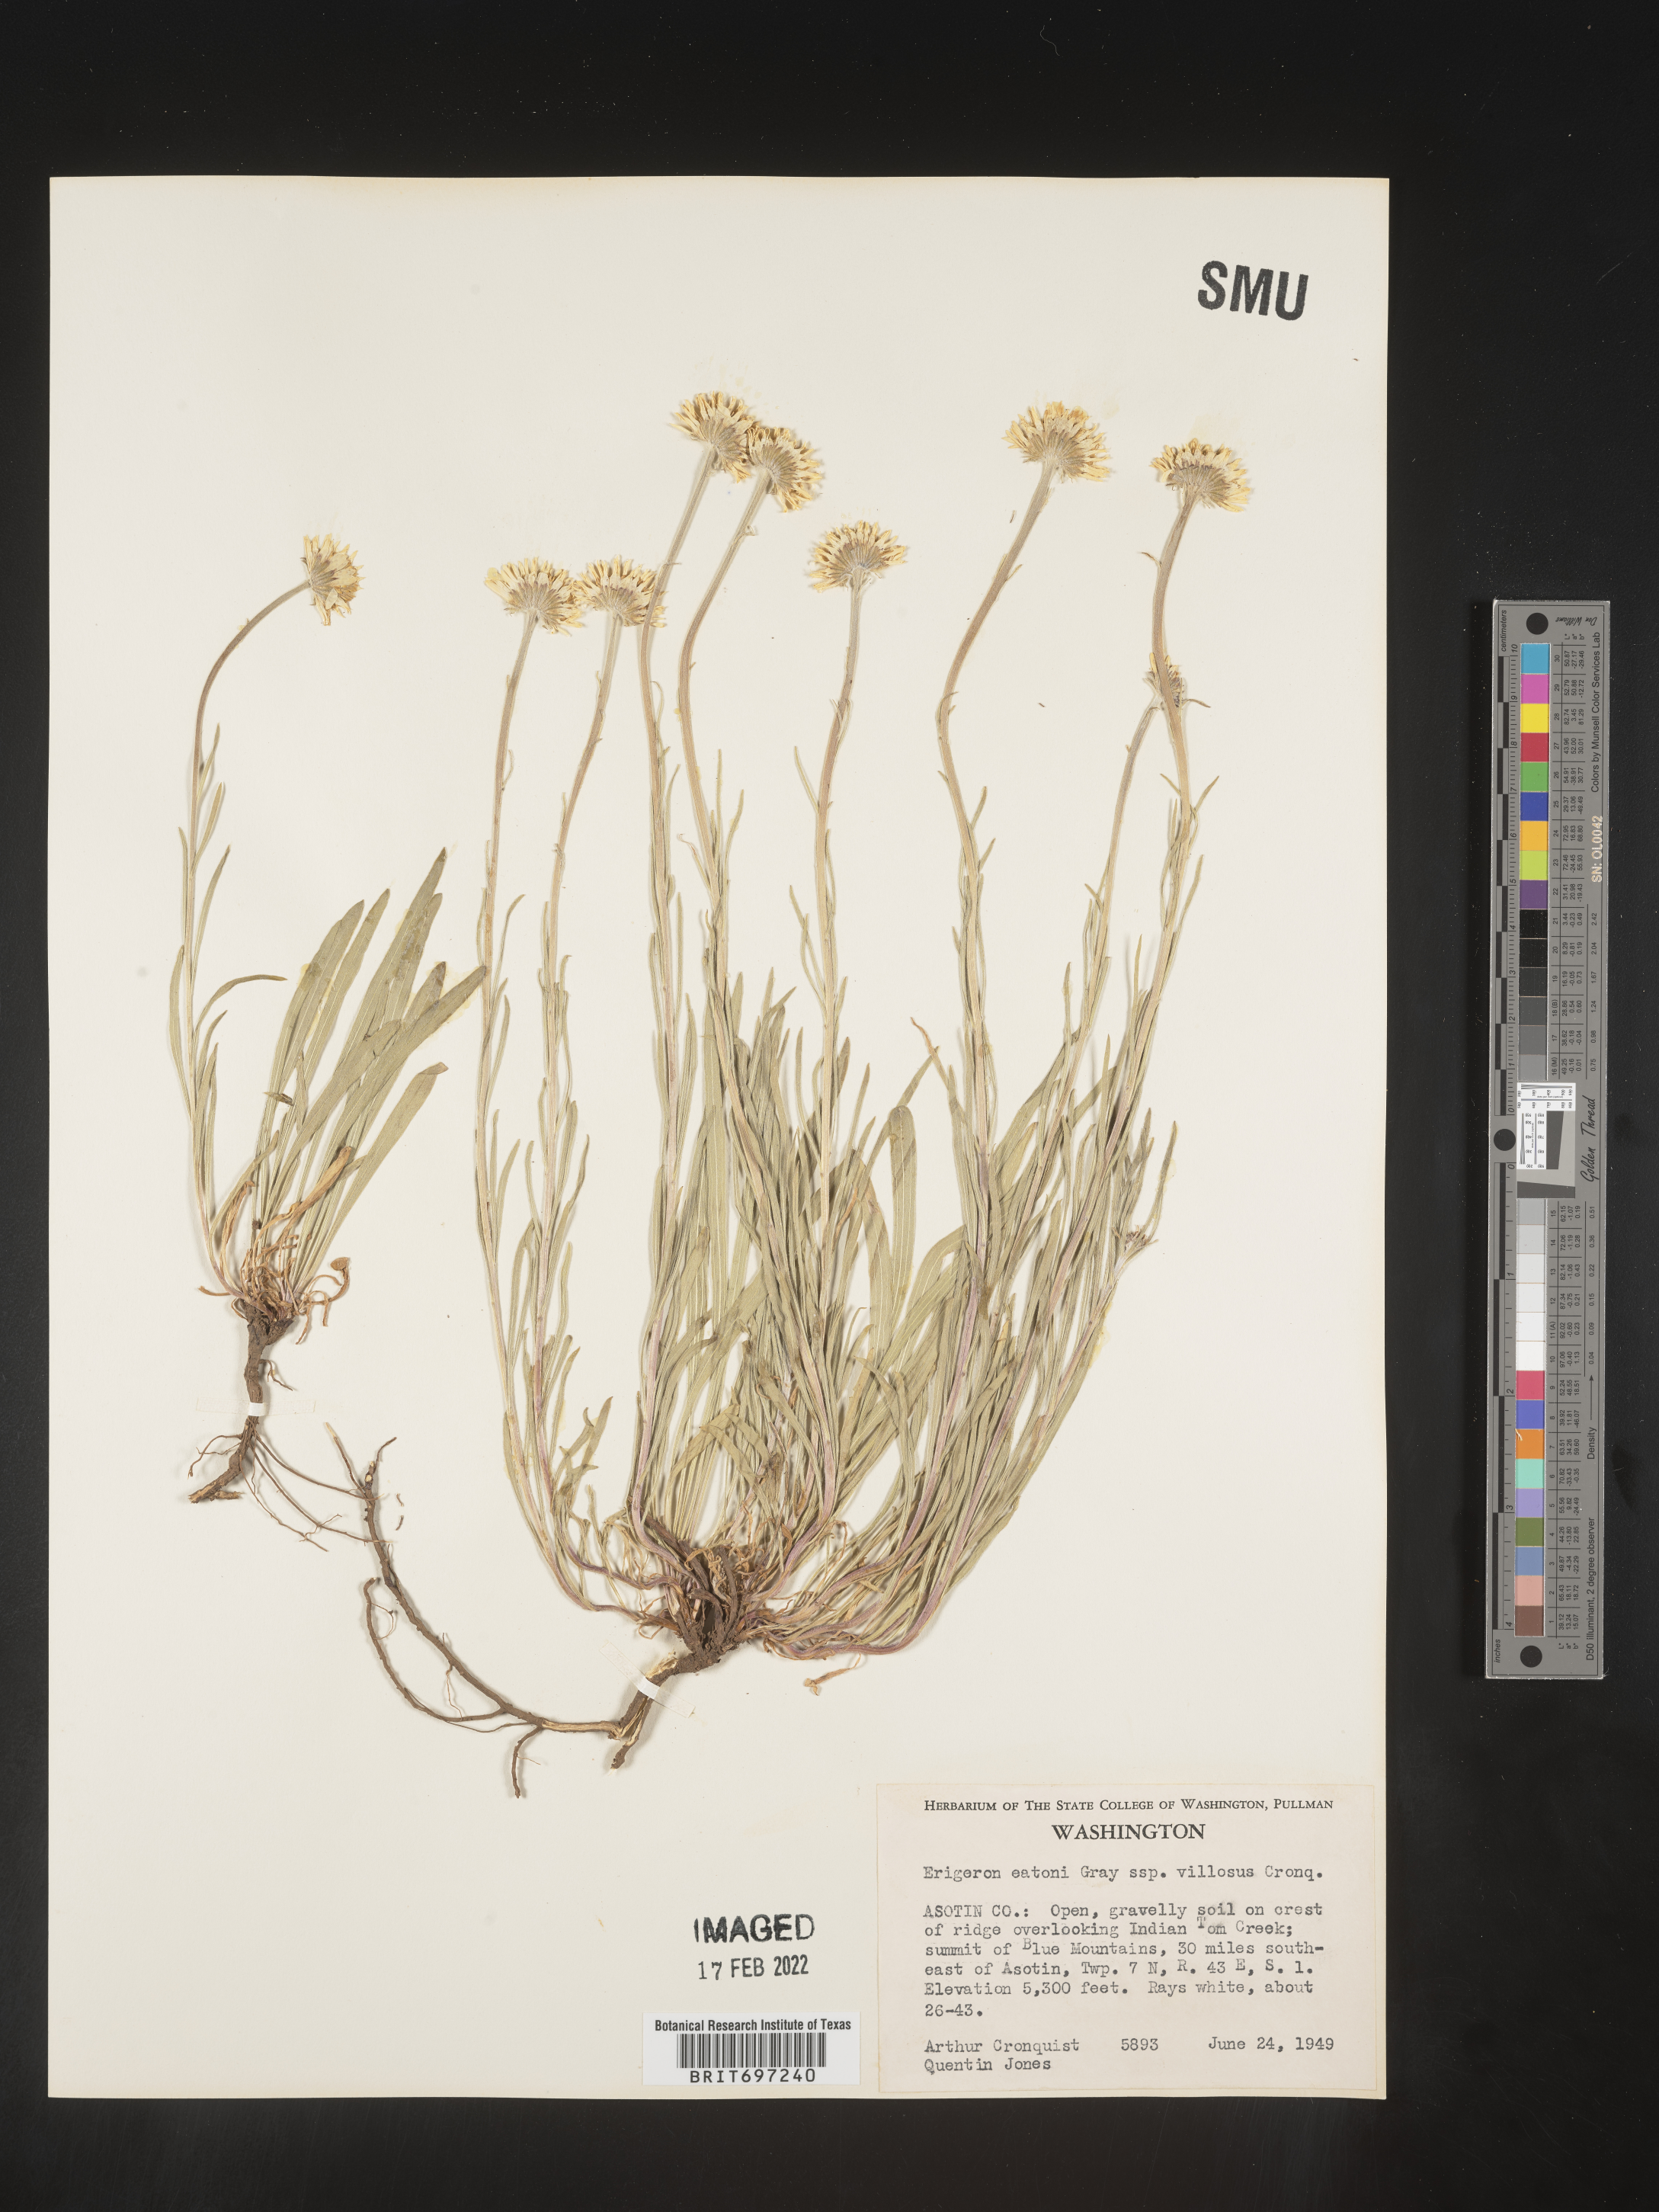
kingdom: Plantae
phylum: Tracheophyta
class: Magnoliopsida
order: Asterales
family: Asteraceae
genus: Erigeron
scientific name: Erigeron eatonii
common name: Eaton's fleabane
